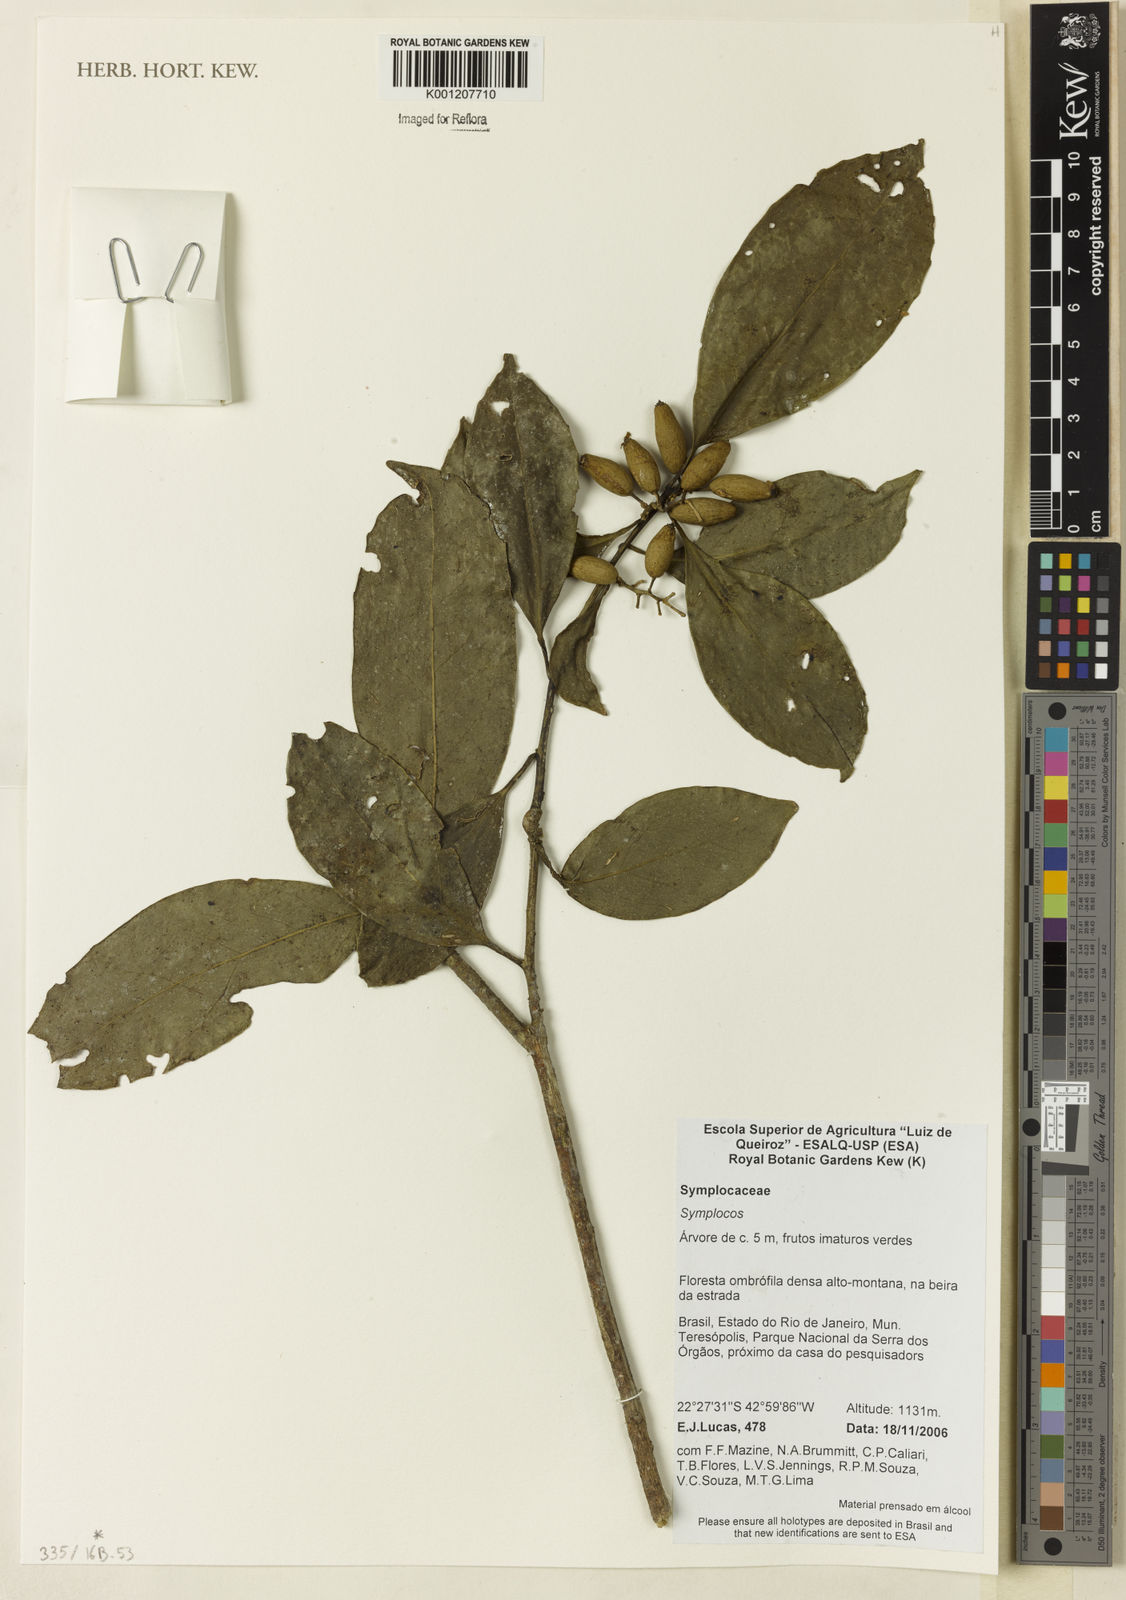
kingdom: Plantae
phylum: Tracheophyta
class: Magnoliopsida
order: Ericales
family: Symplocaceae
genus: Symplocos
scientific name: Symplocos
